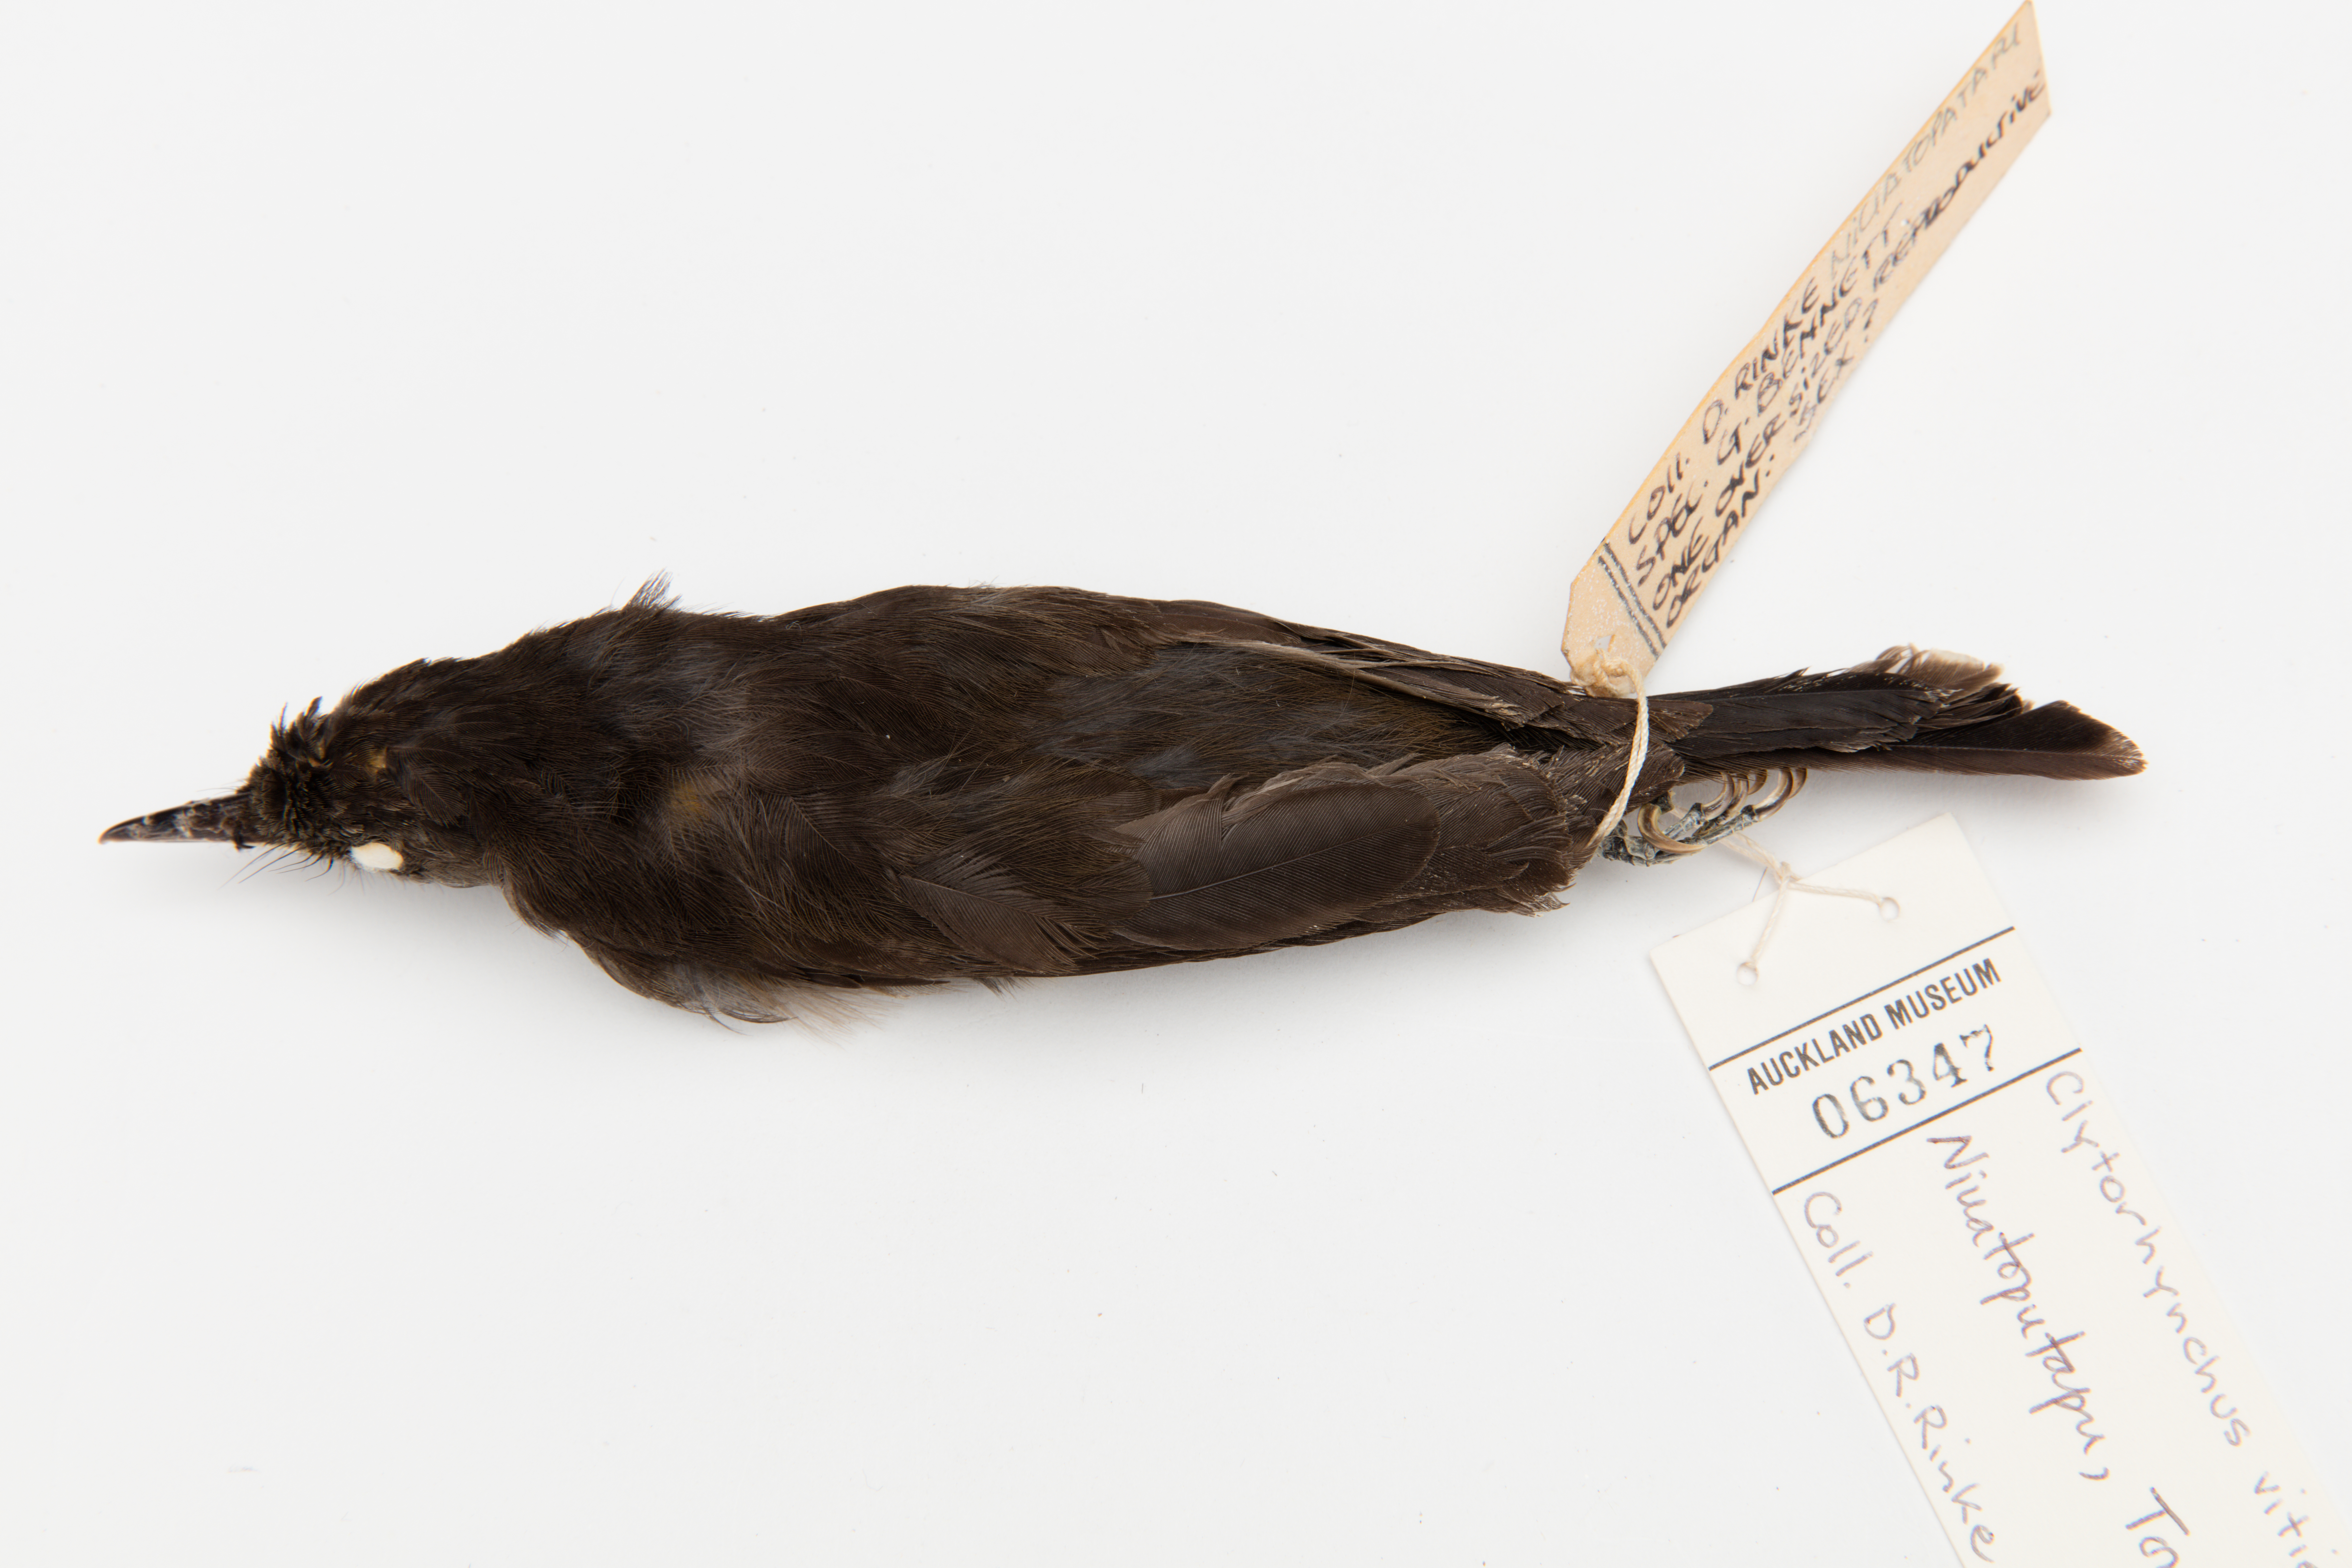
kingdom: Animalia
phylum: Chordata
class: Aves
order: Passeriformes
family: Monarchidae
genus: Clytorhynchus
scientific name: Clytorhynchus vitiensis
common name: Fiji shrikebill
